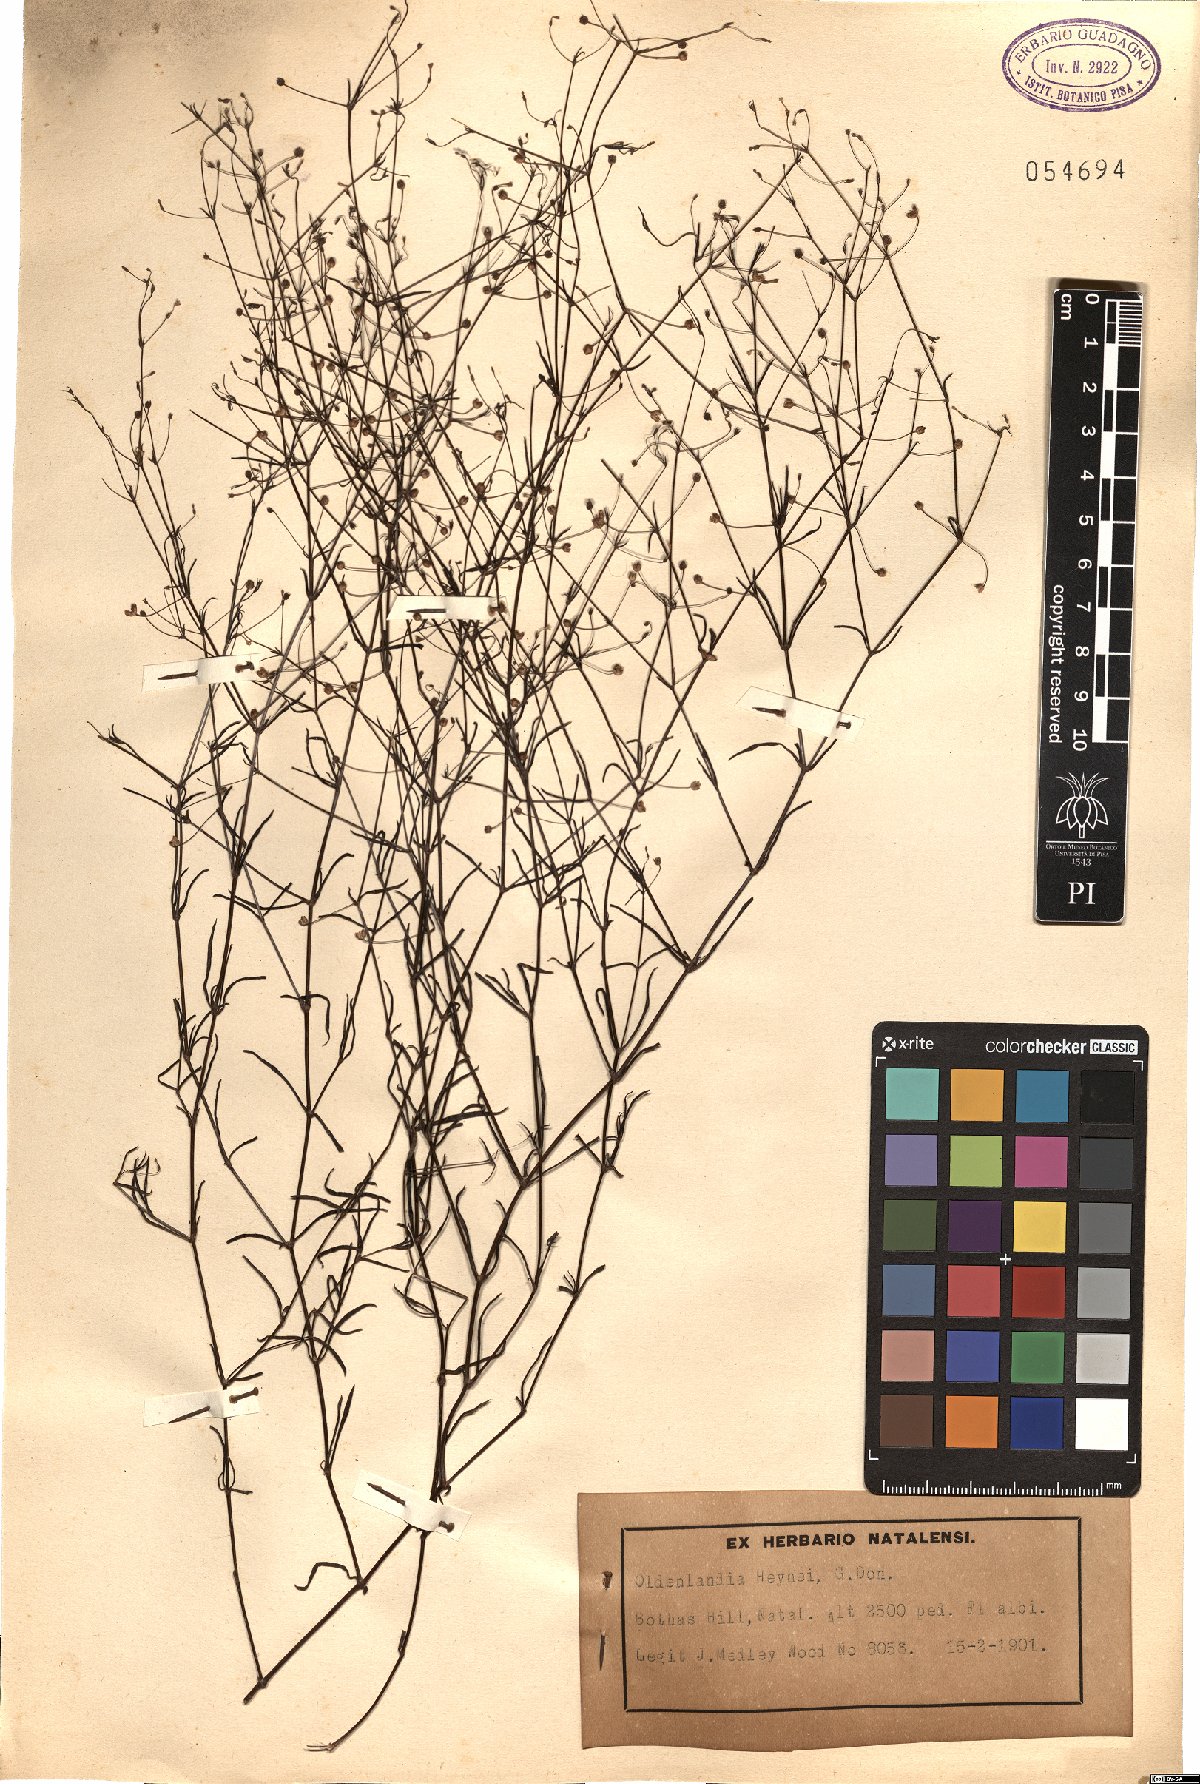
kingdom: Plantae
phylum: Tracheophyta
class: Magnoliopsida
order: Gentianales
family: Rubiaceae
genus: Oldenlandia
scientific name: Oldenlandia herbacea
